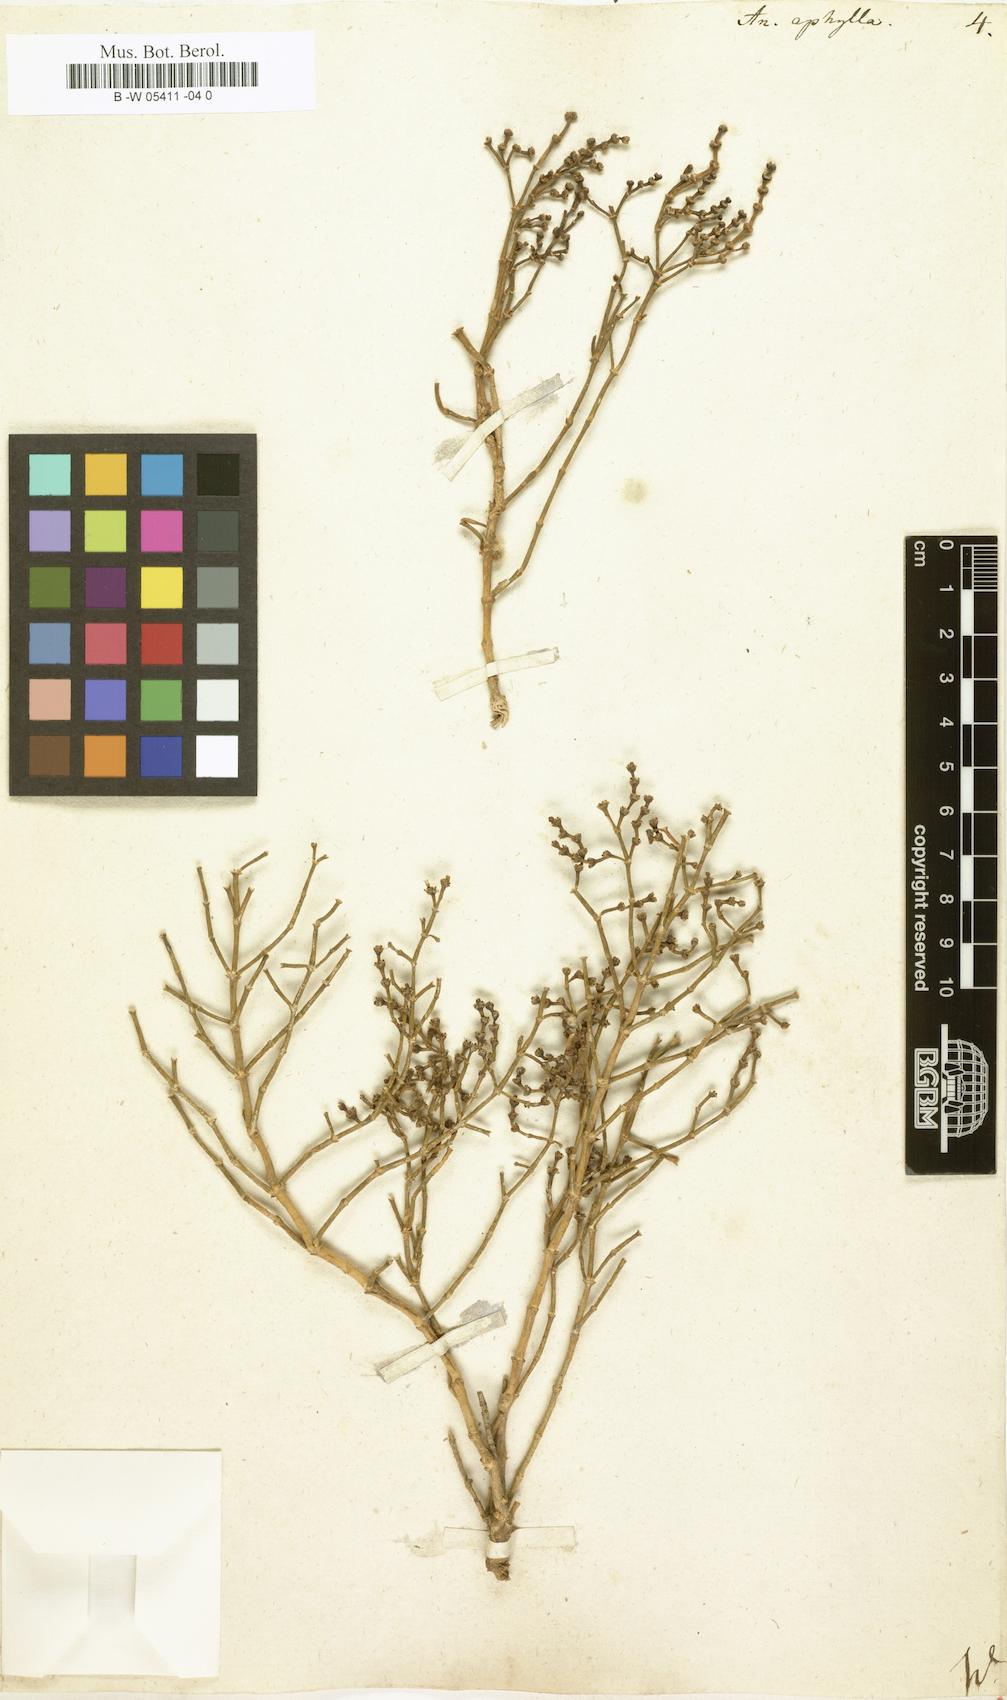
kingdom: Plantae
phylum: Tracheophyta
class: Magnoliopsida
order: Caryophyllales
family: Amaranthaceae
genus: Anabasis
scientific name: Anabasis aphylla
